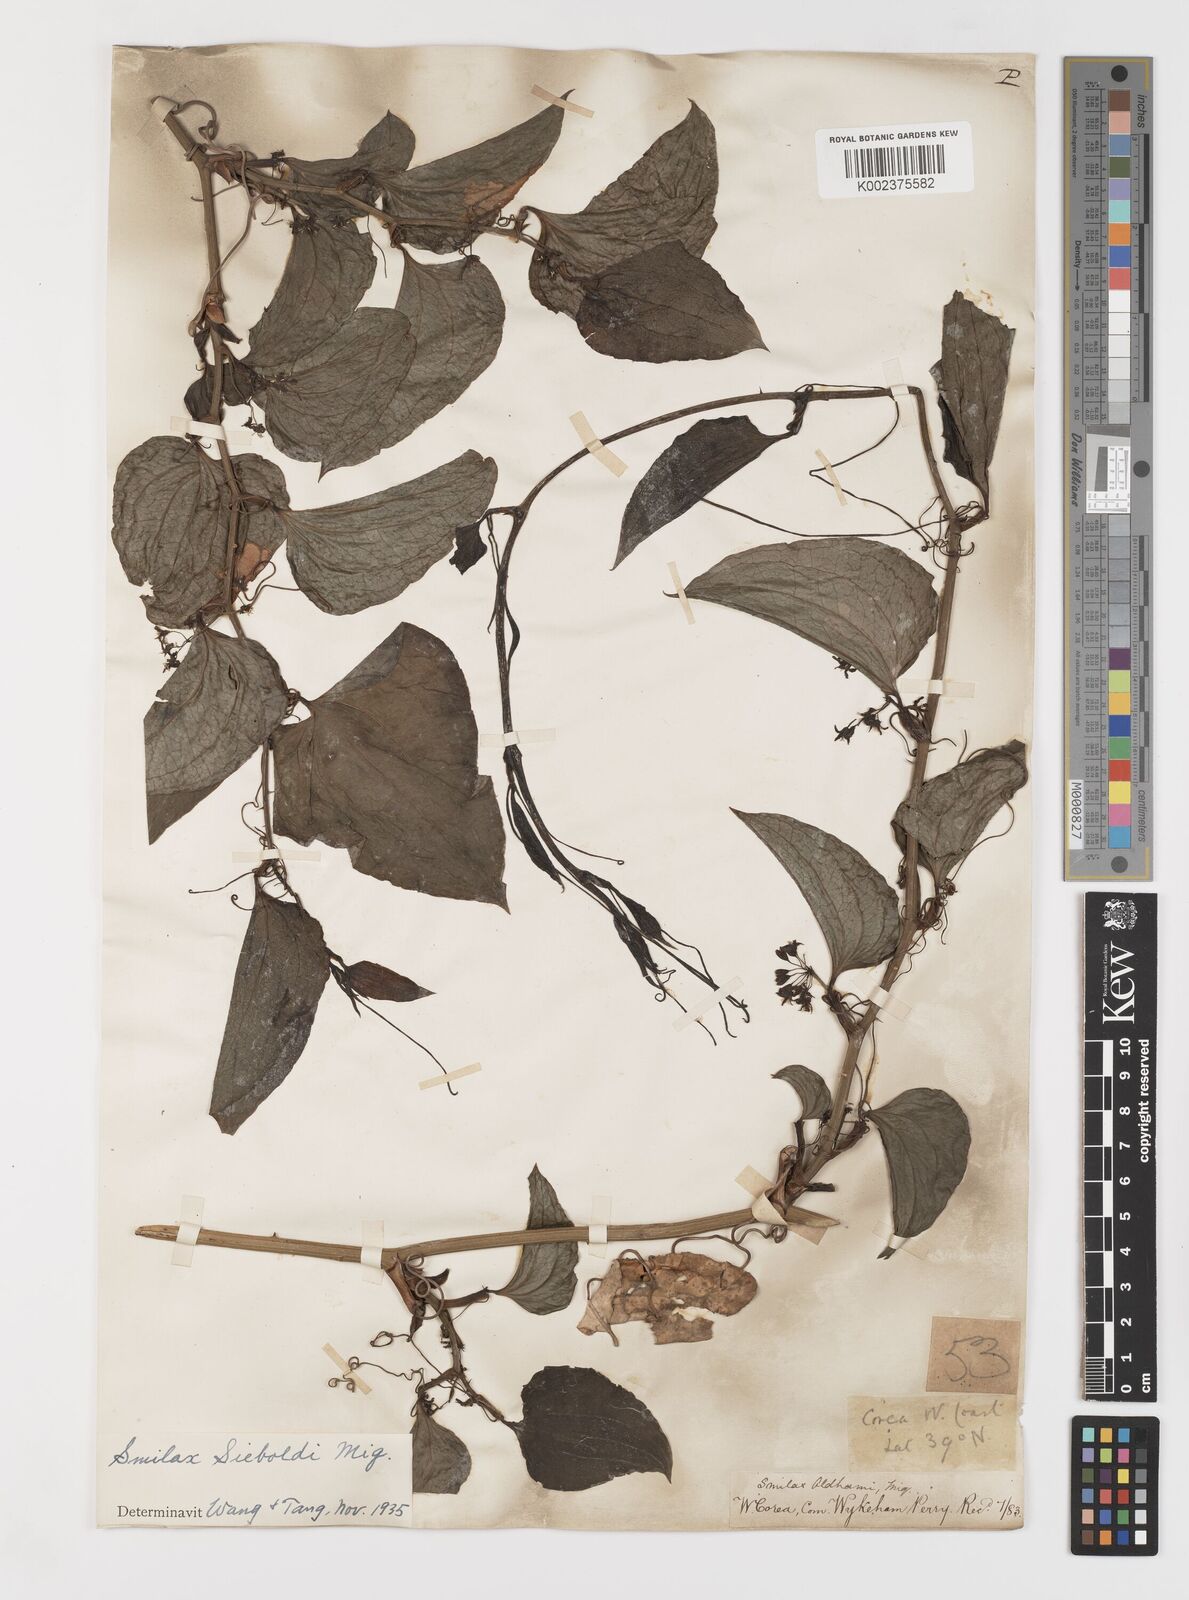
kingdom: Plantae
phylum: Tracheophyta
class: Liliopsida
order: Liliales
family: Smilacaceae
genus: Smilax
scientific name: Smilax sieboldii
